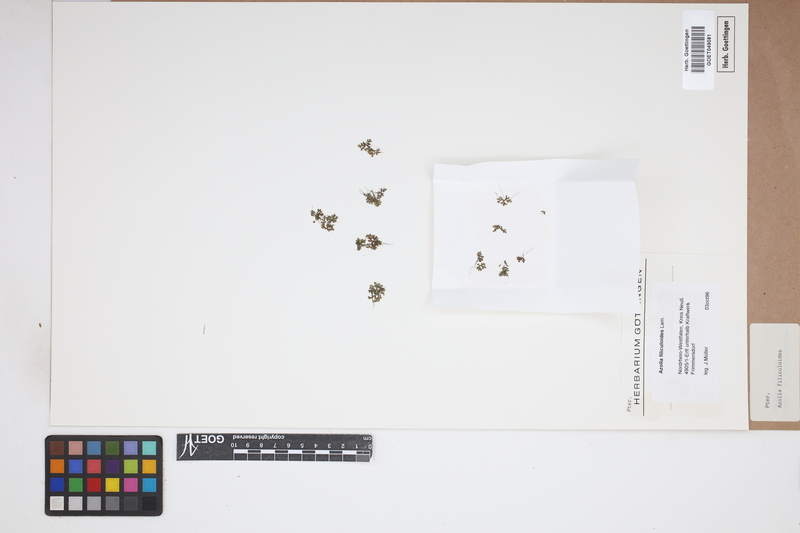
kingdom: Plantae
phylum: Tracheophyta
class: Polypodiopsida
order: Salviniales
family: Salviniaceae
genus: Azolla
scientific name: Azolla filiculoides
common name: Water fern
